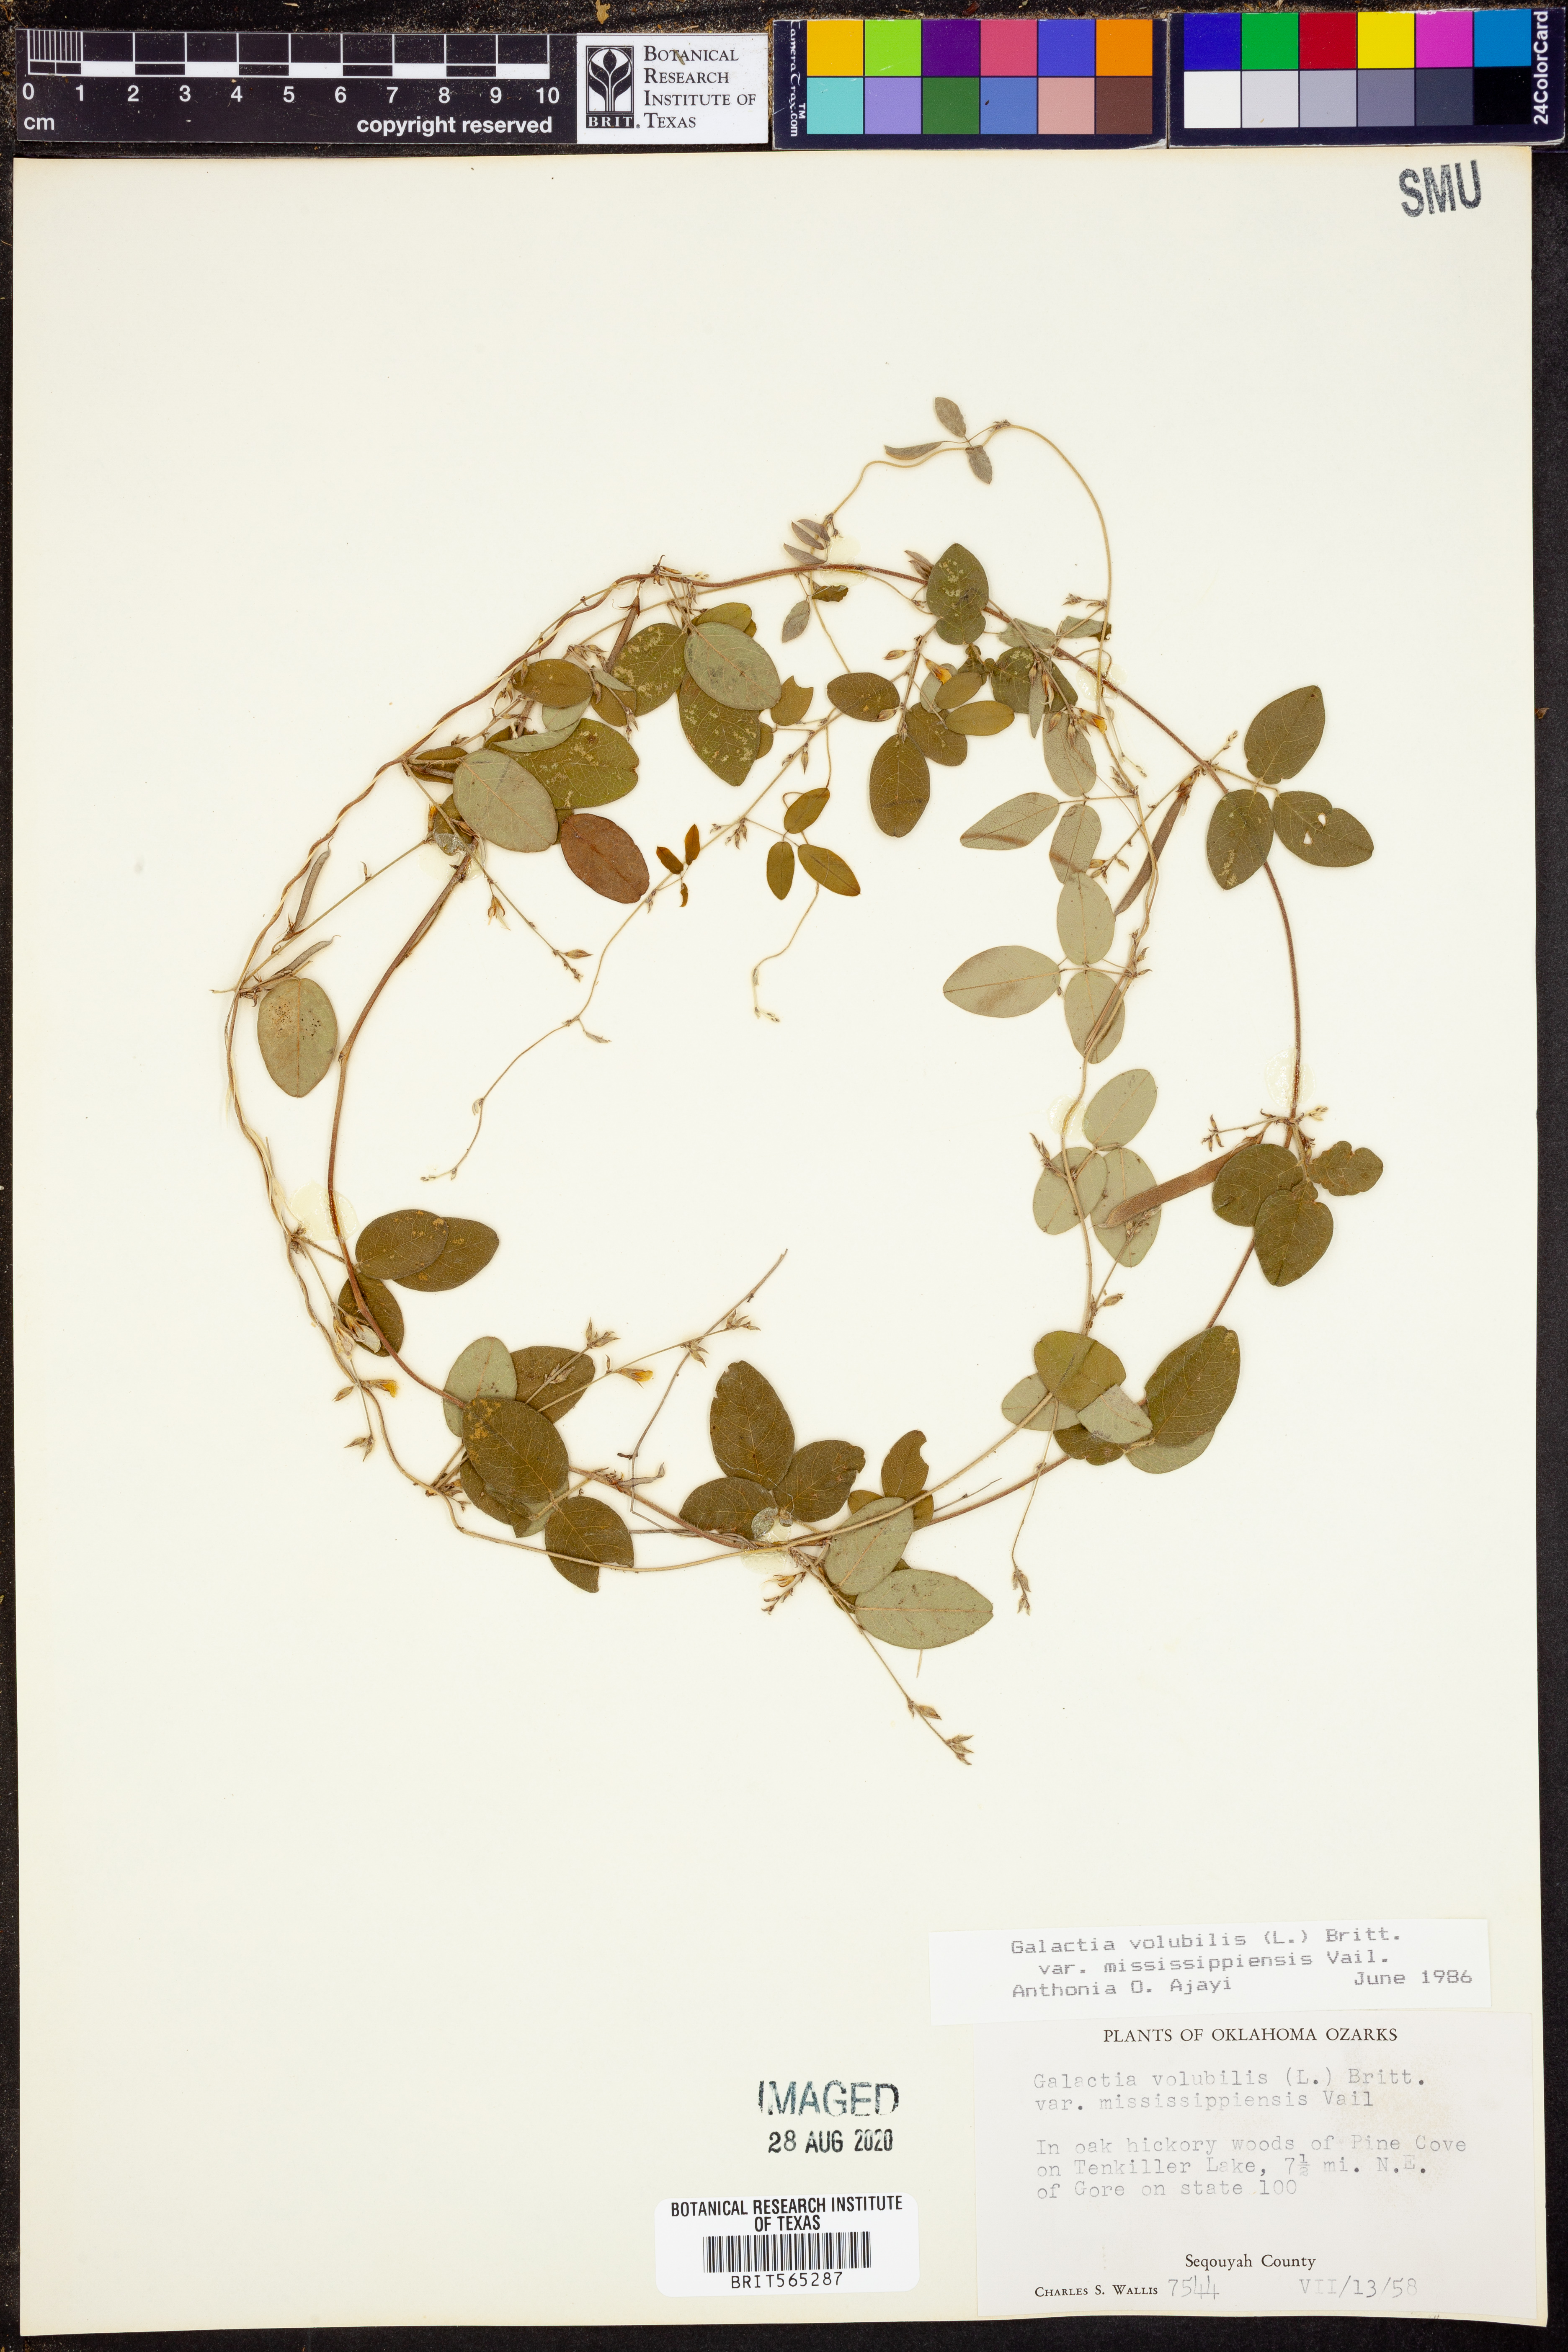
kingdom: Plantae
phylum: Tracheophyta
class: Magnoliopsida
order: Fabales
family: Fabaceae
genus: Galactia
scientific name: Galactia volubilis
